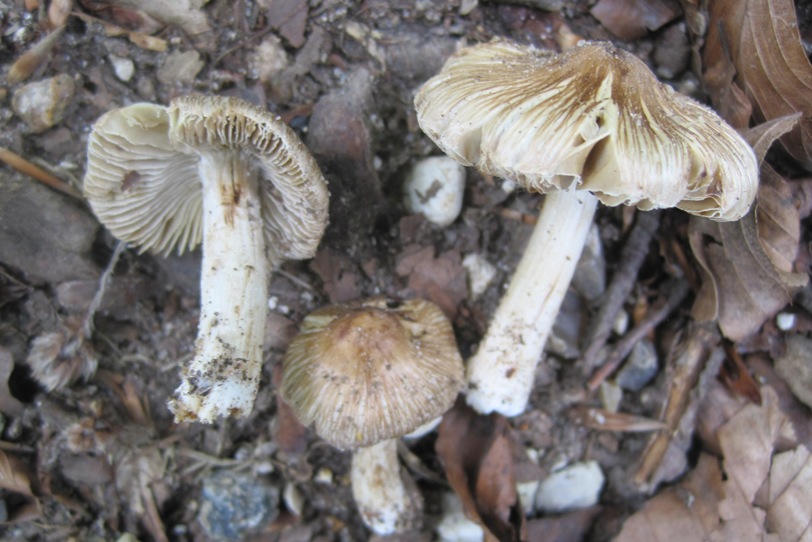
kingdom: Fungi
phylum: Basidiomycota
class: Agaricomycetes
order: Agaricales
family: Inocybaceae
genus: Pseudosperma
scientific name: Pseudosperma rimosum
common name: gulbladet trævlhat
